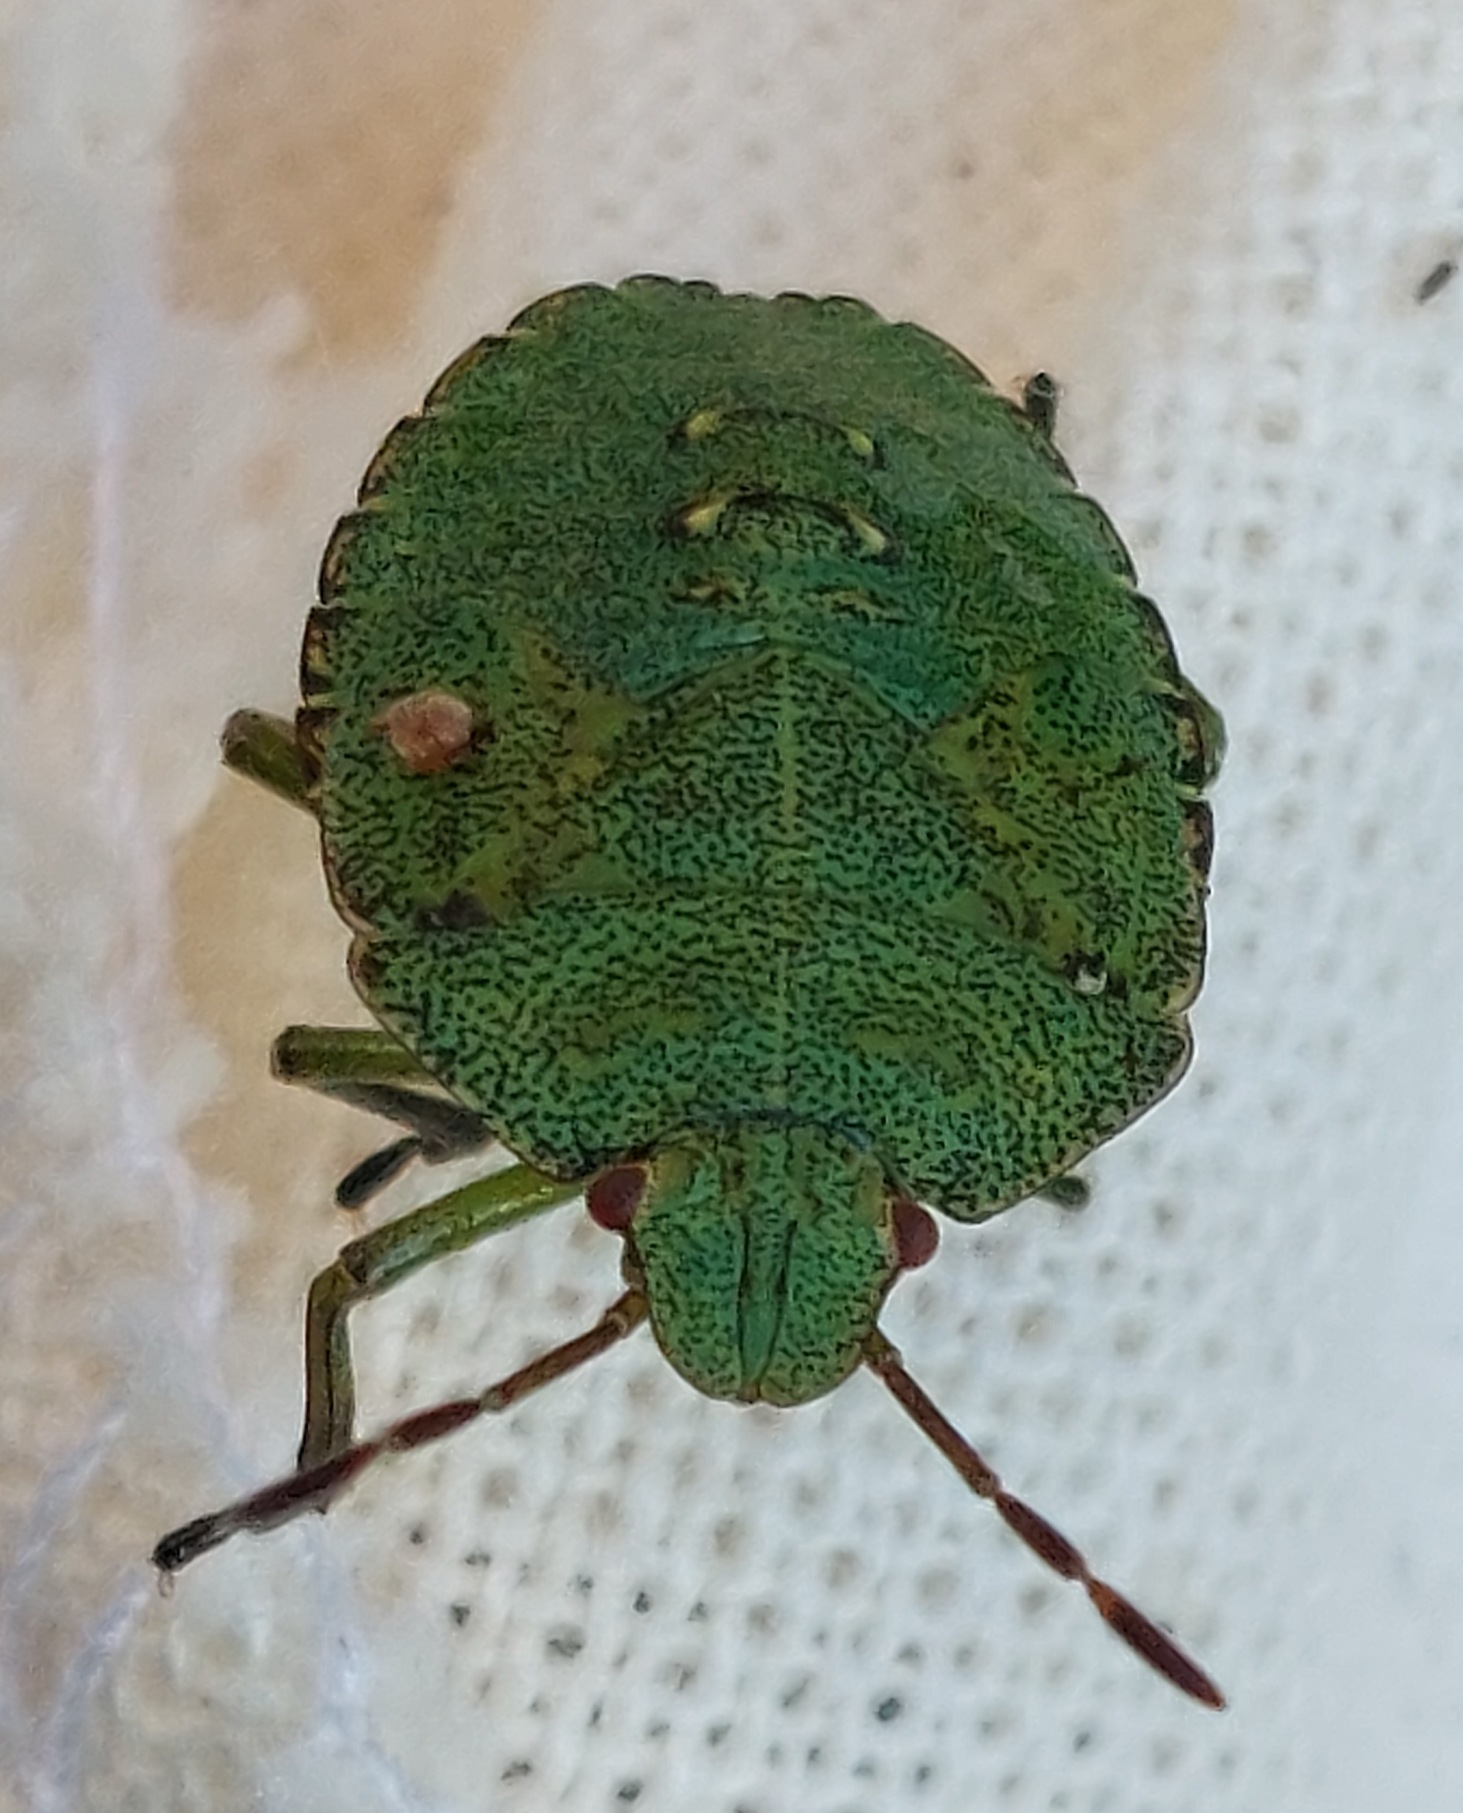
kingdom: Animalia
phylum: Arthropoda
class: Insecta
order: Hemiptera
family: Pentatomidae
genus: Palomena
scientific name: Palomena prasina
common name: Grøn bredtæge
